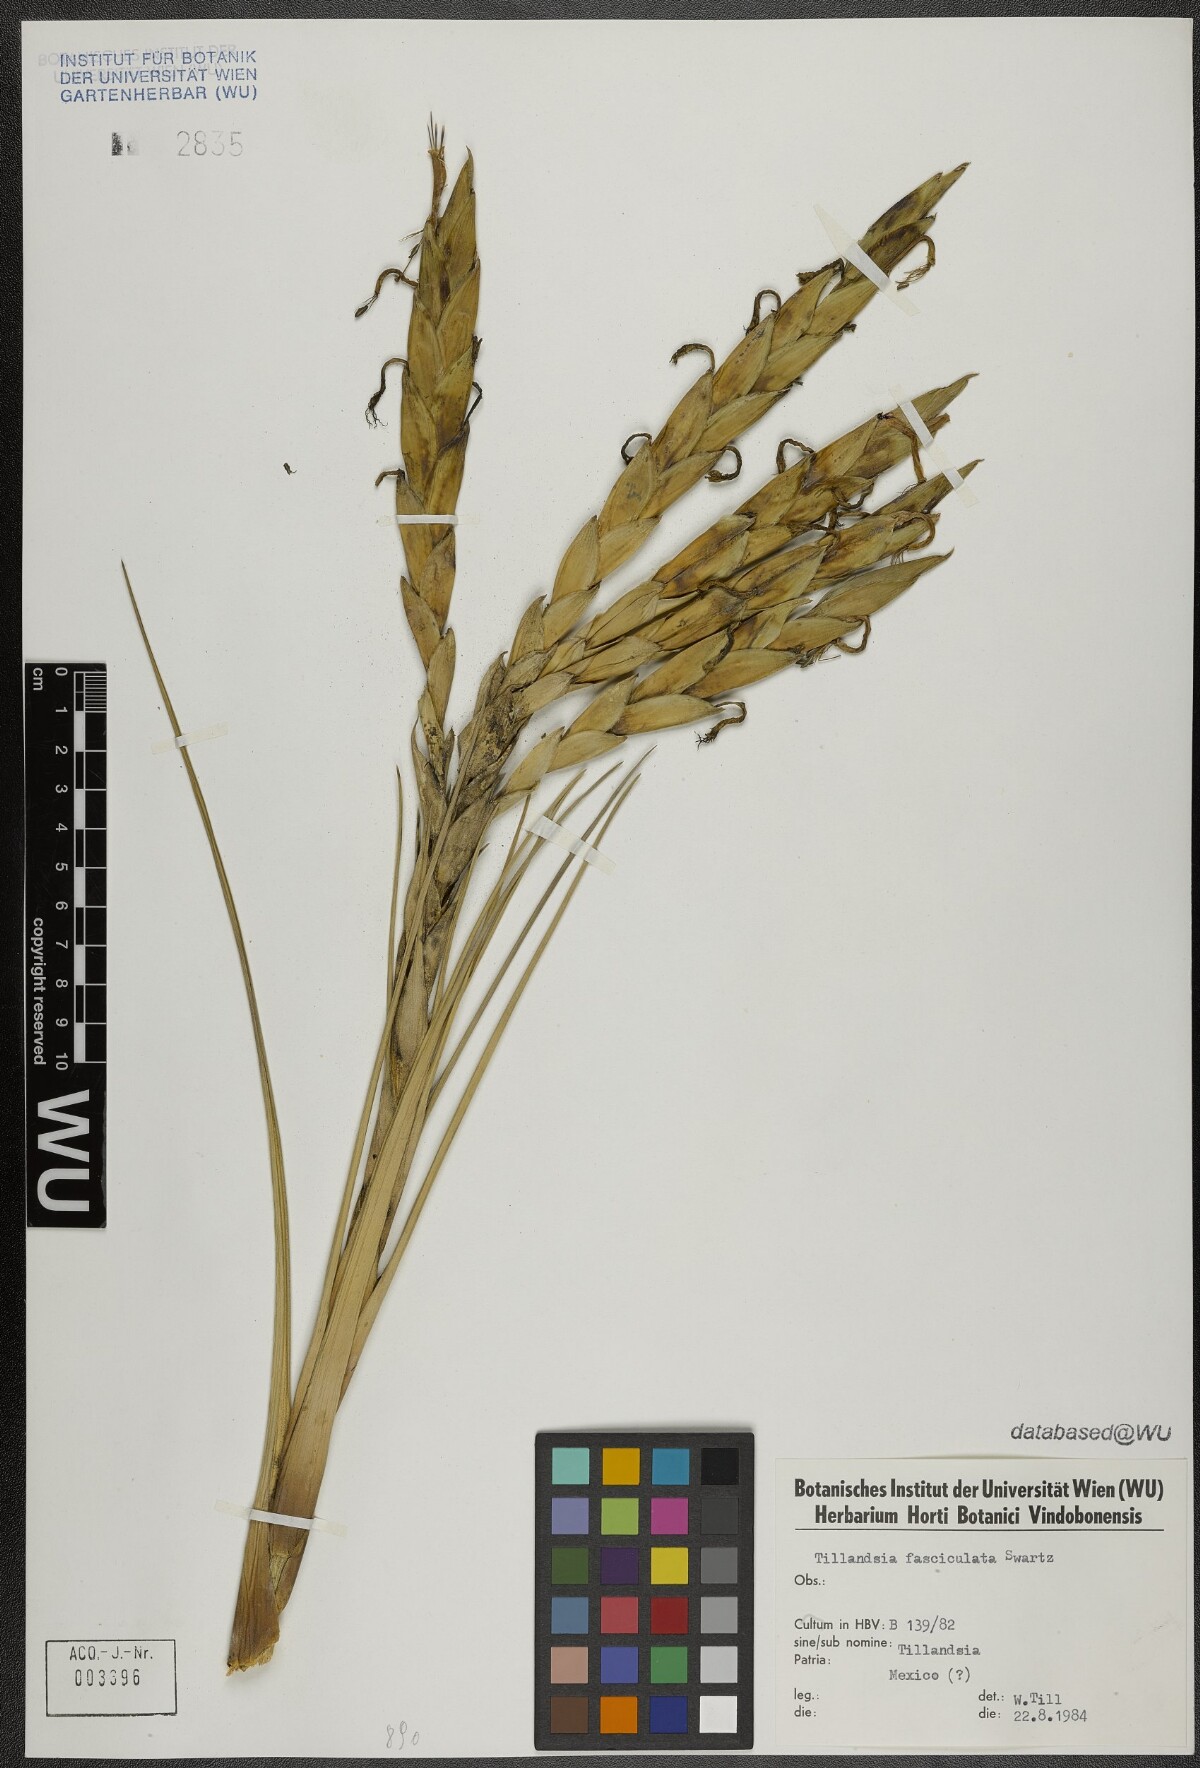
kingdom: Plantae
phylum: Tracheophyta
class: Liliopsida
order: Poales
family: Bromeliaceae
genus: Tillandsia
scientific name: Tillandsia fasciculata
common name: Giant airplant
